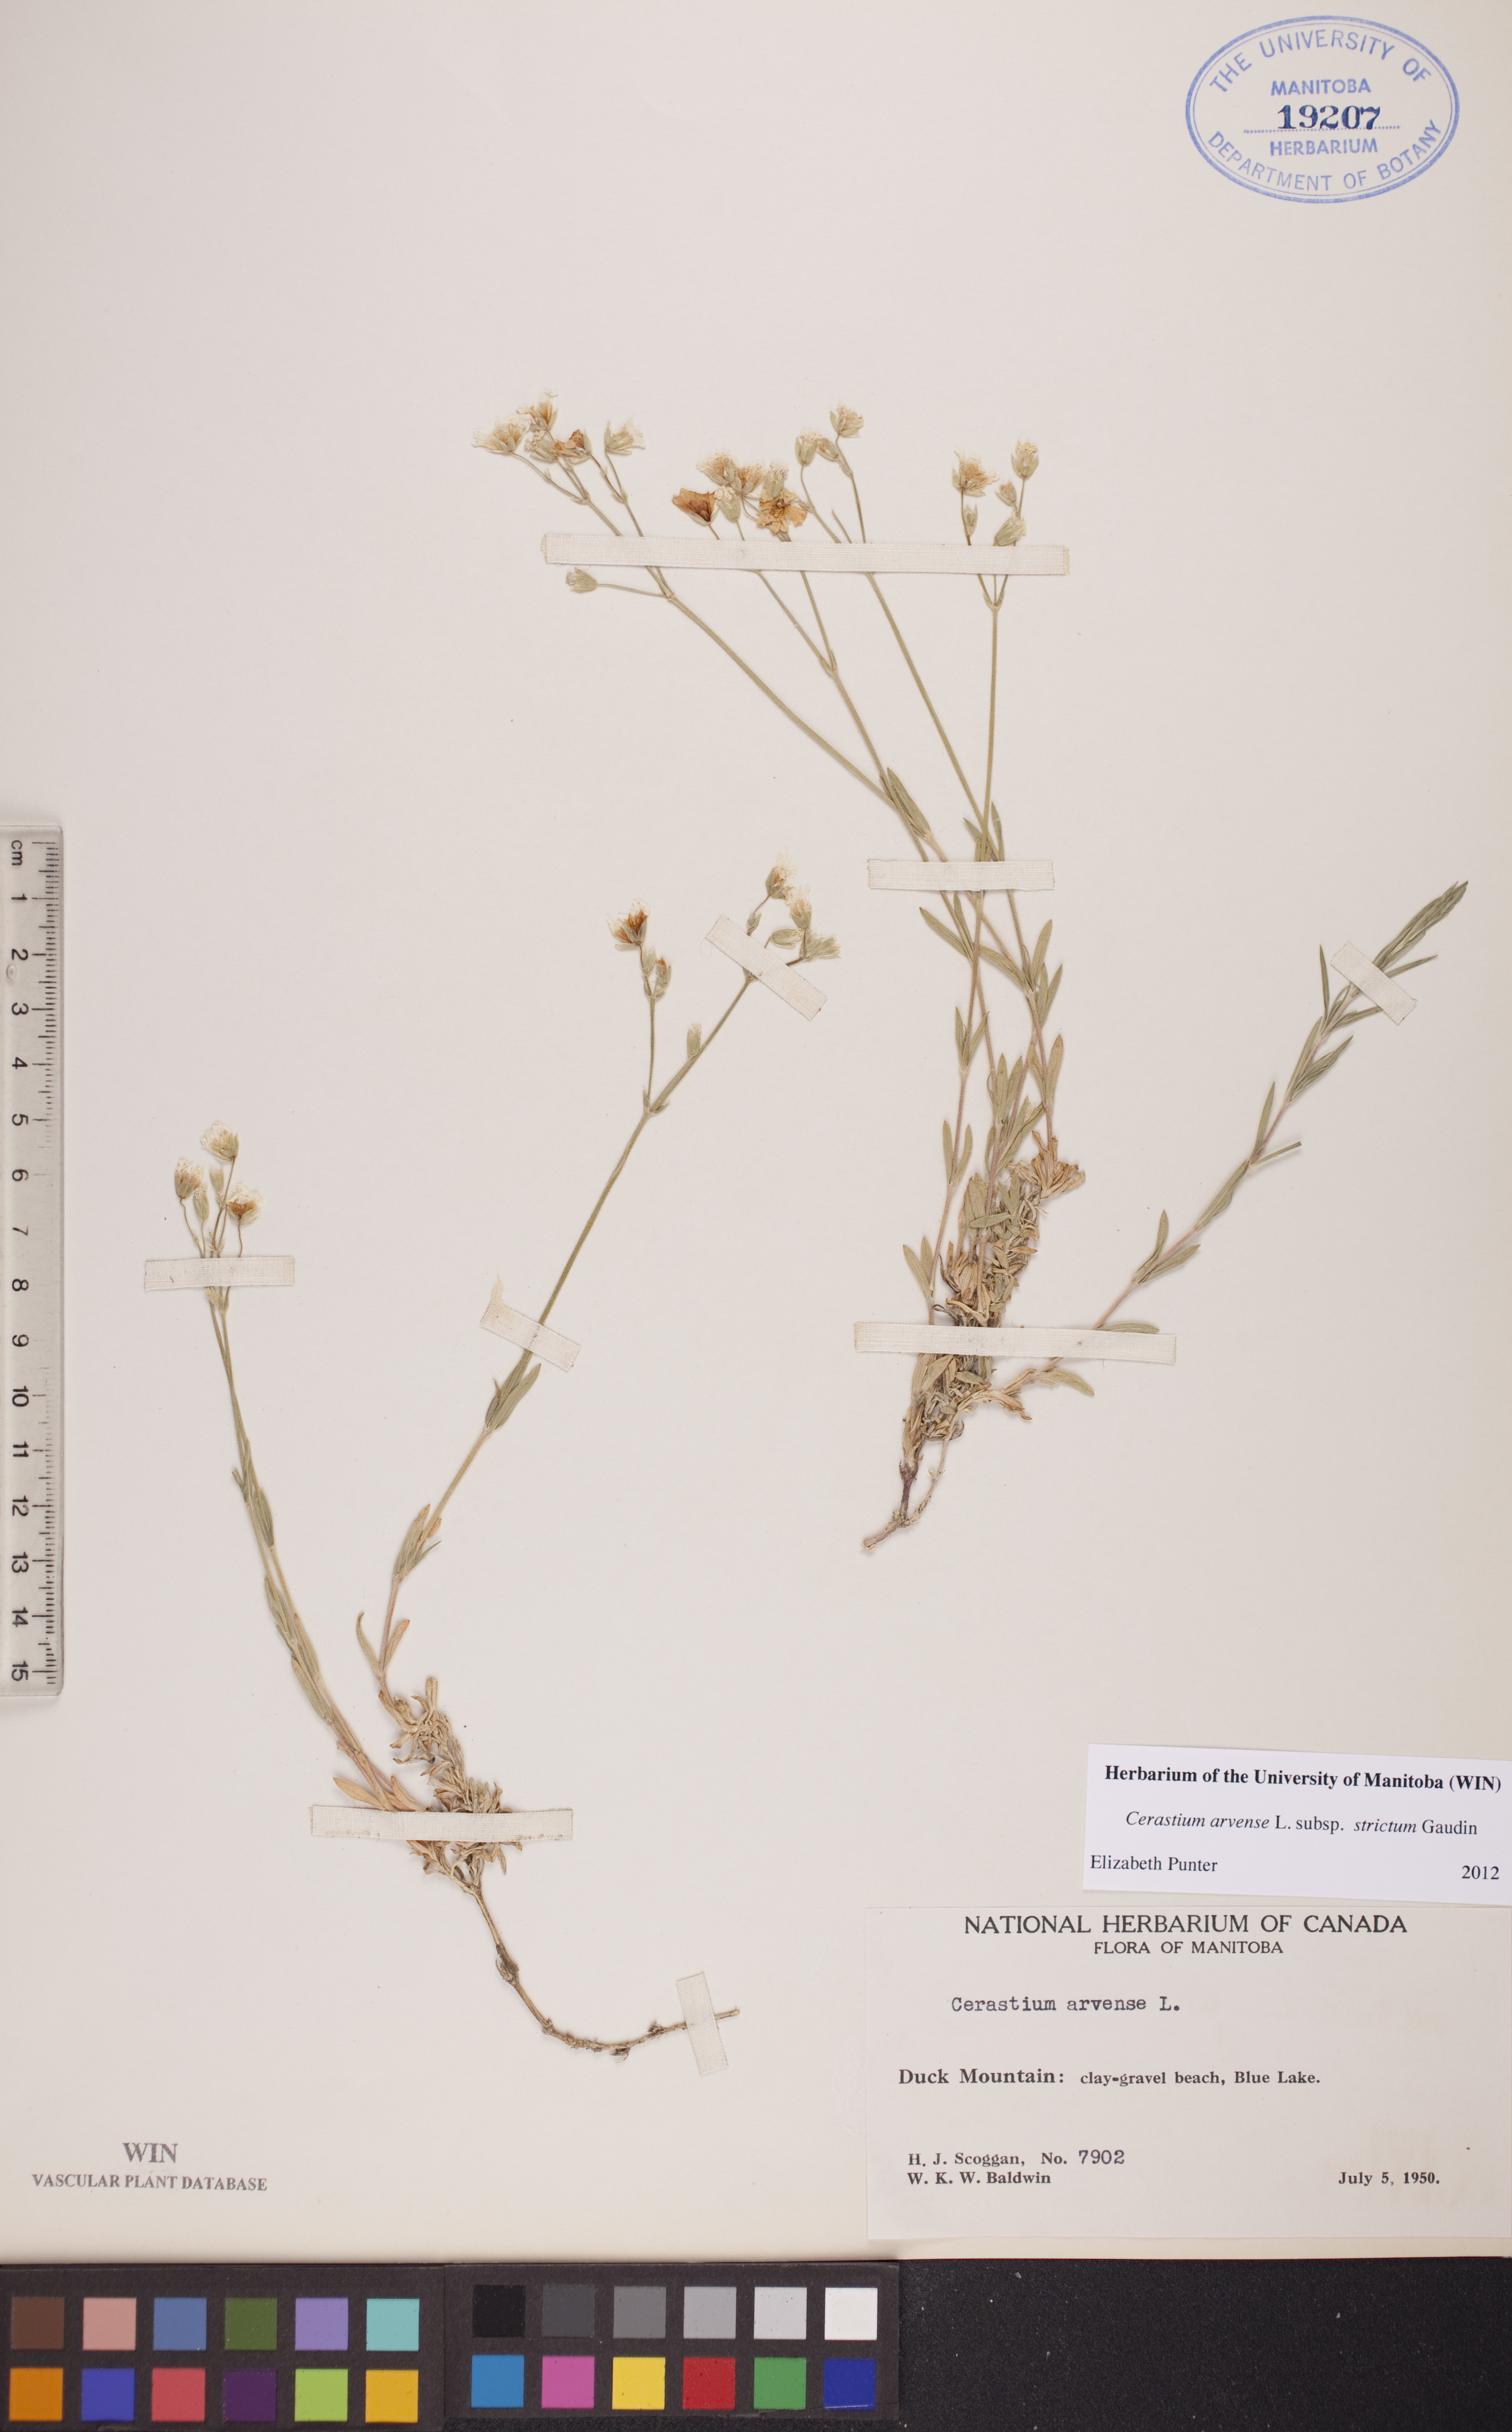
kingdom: Plantae
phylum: Tracheophyta
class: Magnoliopsida
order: Caryophyllales
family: Caryophyllaceae
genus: Cerastium
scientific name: Cerastium elongatum
